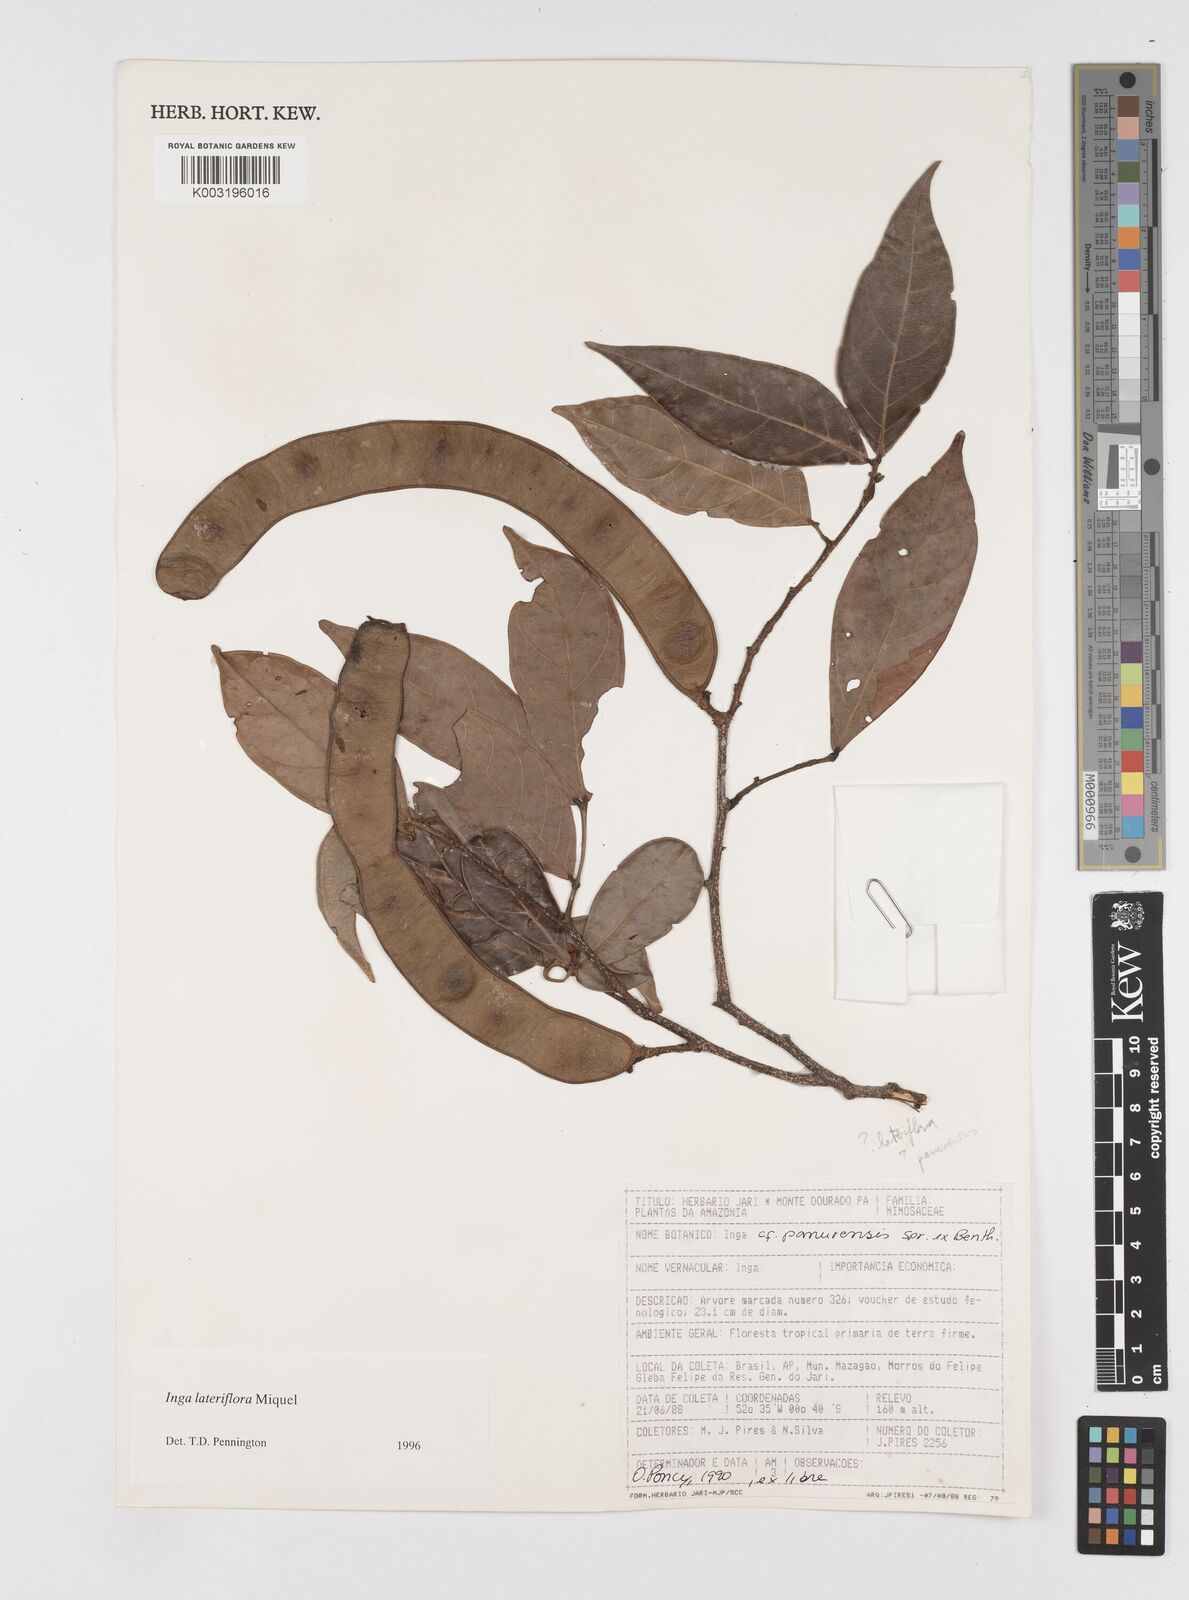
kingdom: Plantae
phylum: Tracheophyta
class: Magnoliopsida
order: Fabales
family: Fabaceae
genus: Inga
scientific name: Inga lateriflora
